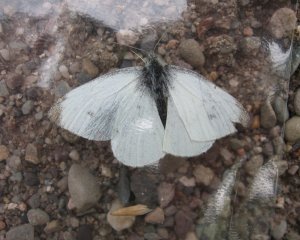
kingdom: Animalia
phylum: Arthropoda
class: Insecta
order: Lepidoptera
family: Pieridae
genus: Pieris
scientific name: Pieris rapae
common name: Cabbage White
